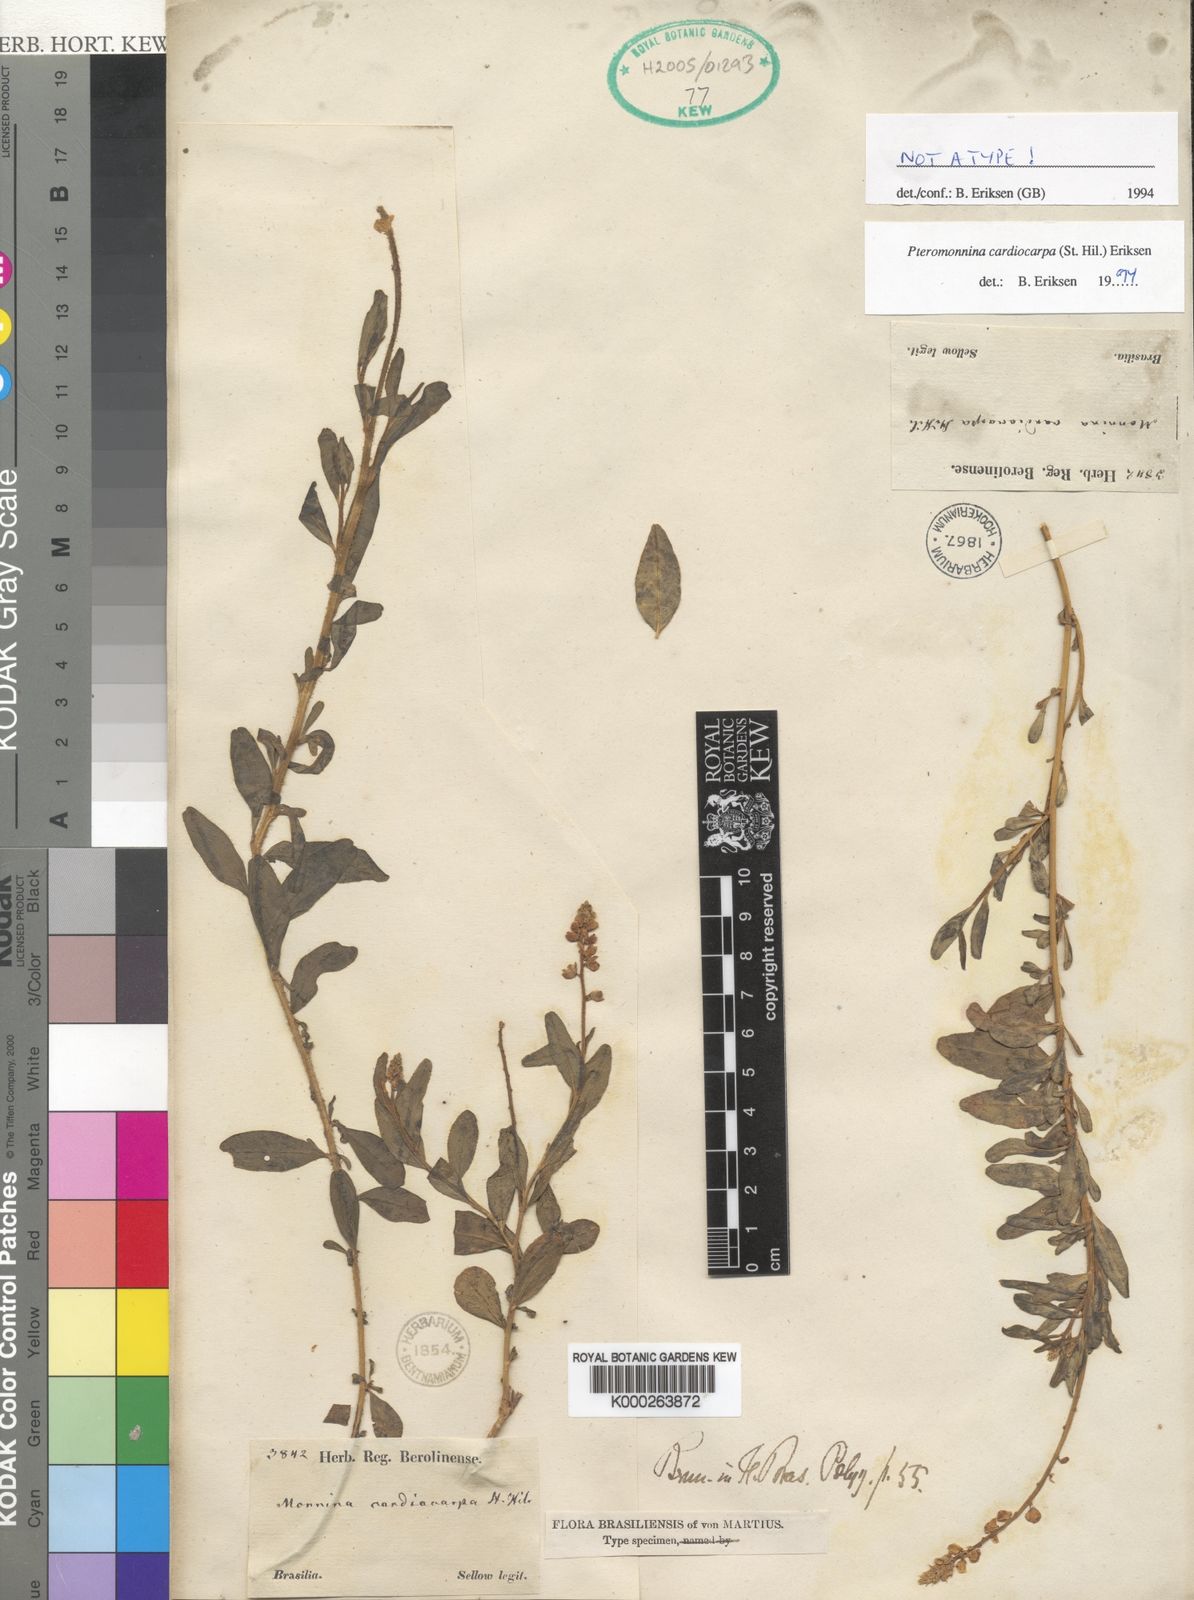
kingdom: Plantae
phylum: Tracheophyta
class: Magnoliopsida
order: Fabales
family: Polygalaceae
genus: Monnina
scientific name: Monnina cardiocarpa
